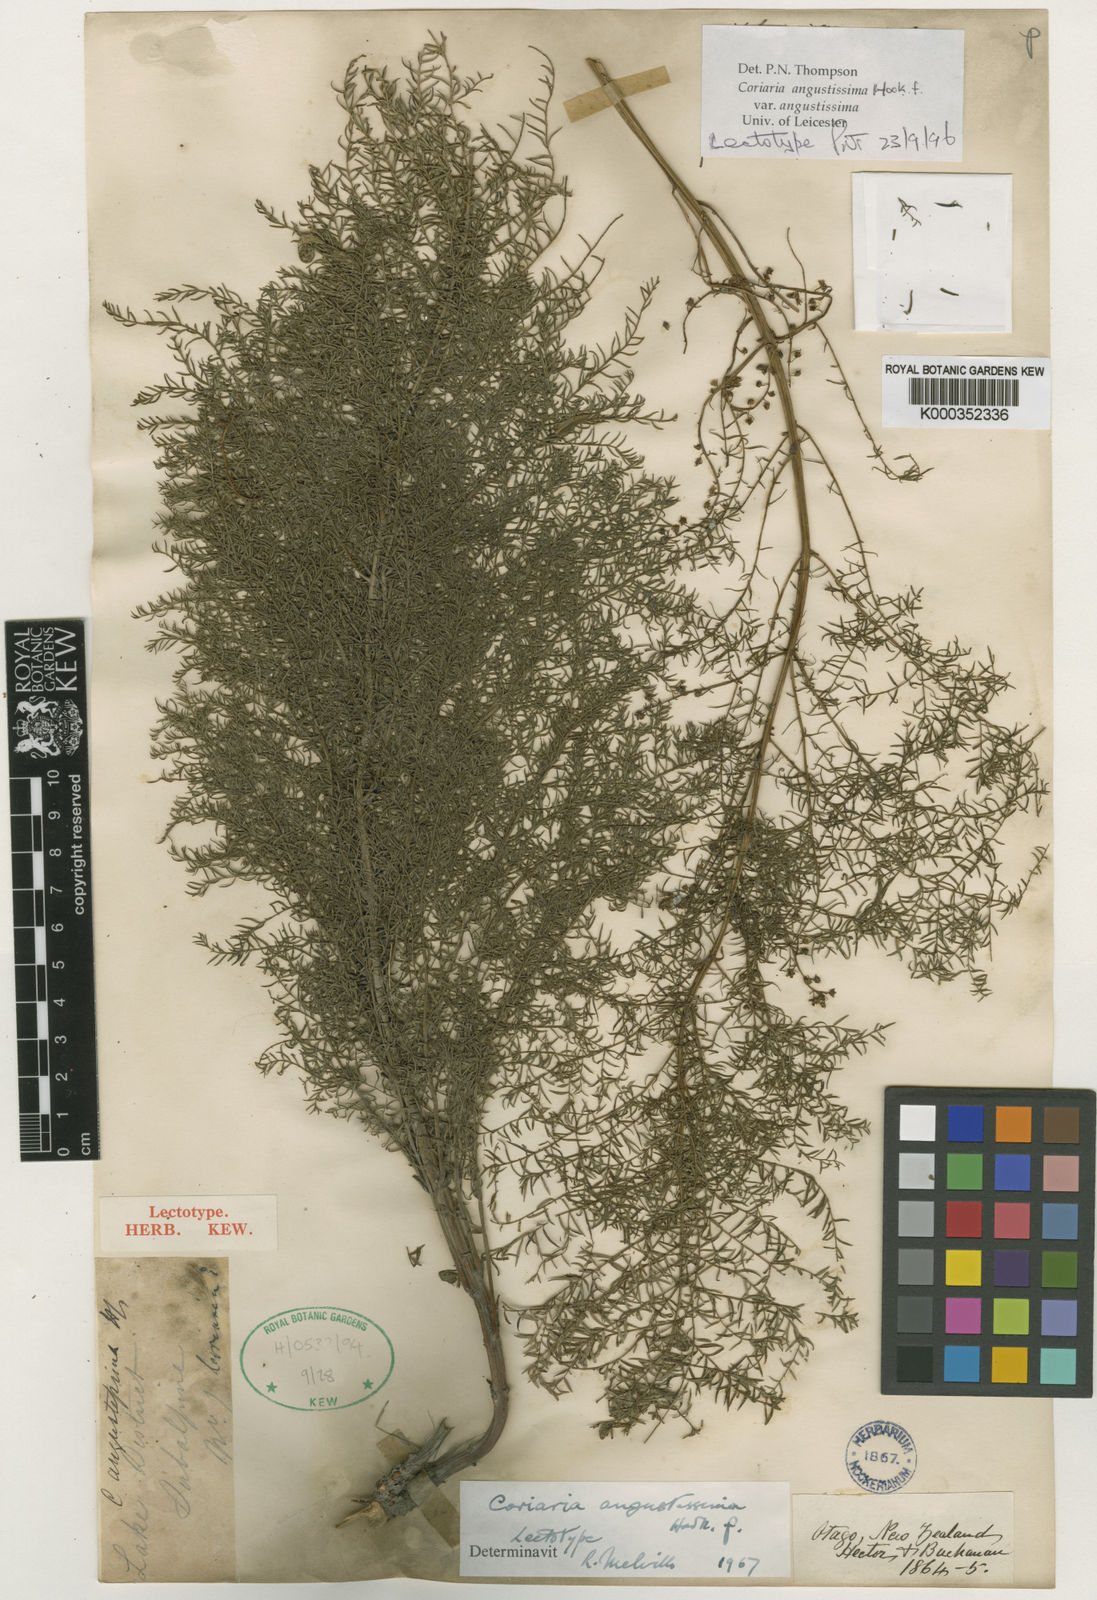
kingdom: Plantae
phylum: Tracheophyta
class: Magnoliopsida
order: Cucurbitales
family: Coriariaceae
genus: Coriaria
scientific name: Coriaria angustissima
